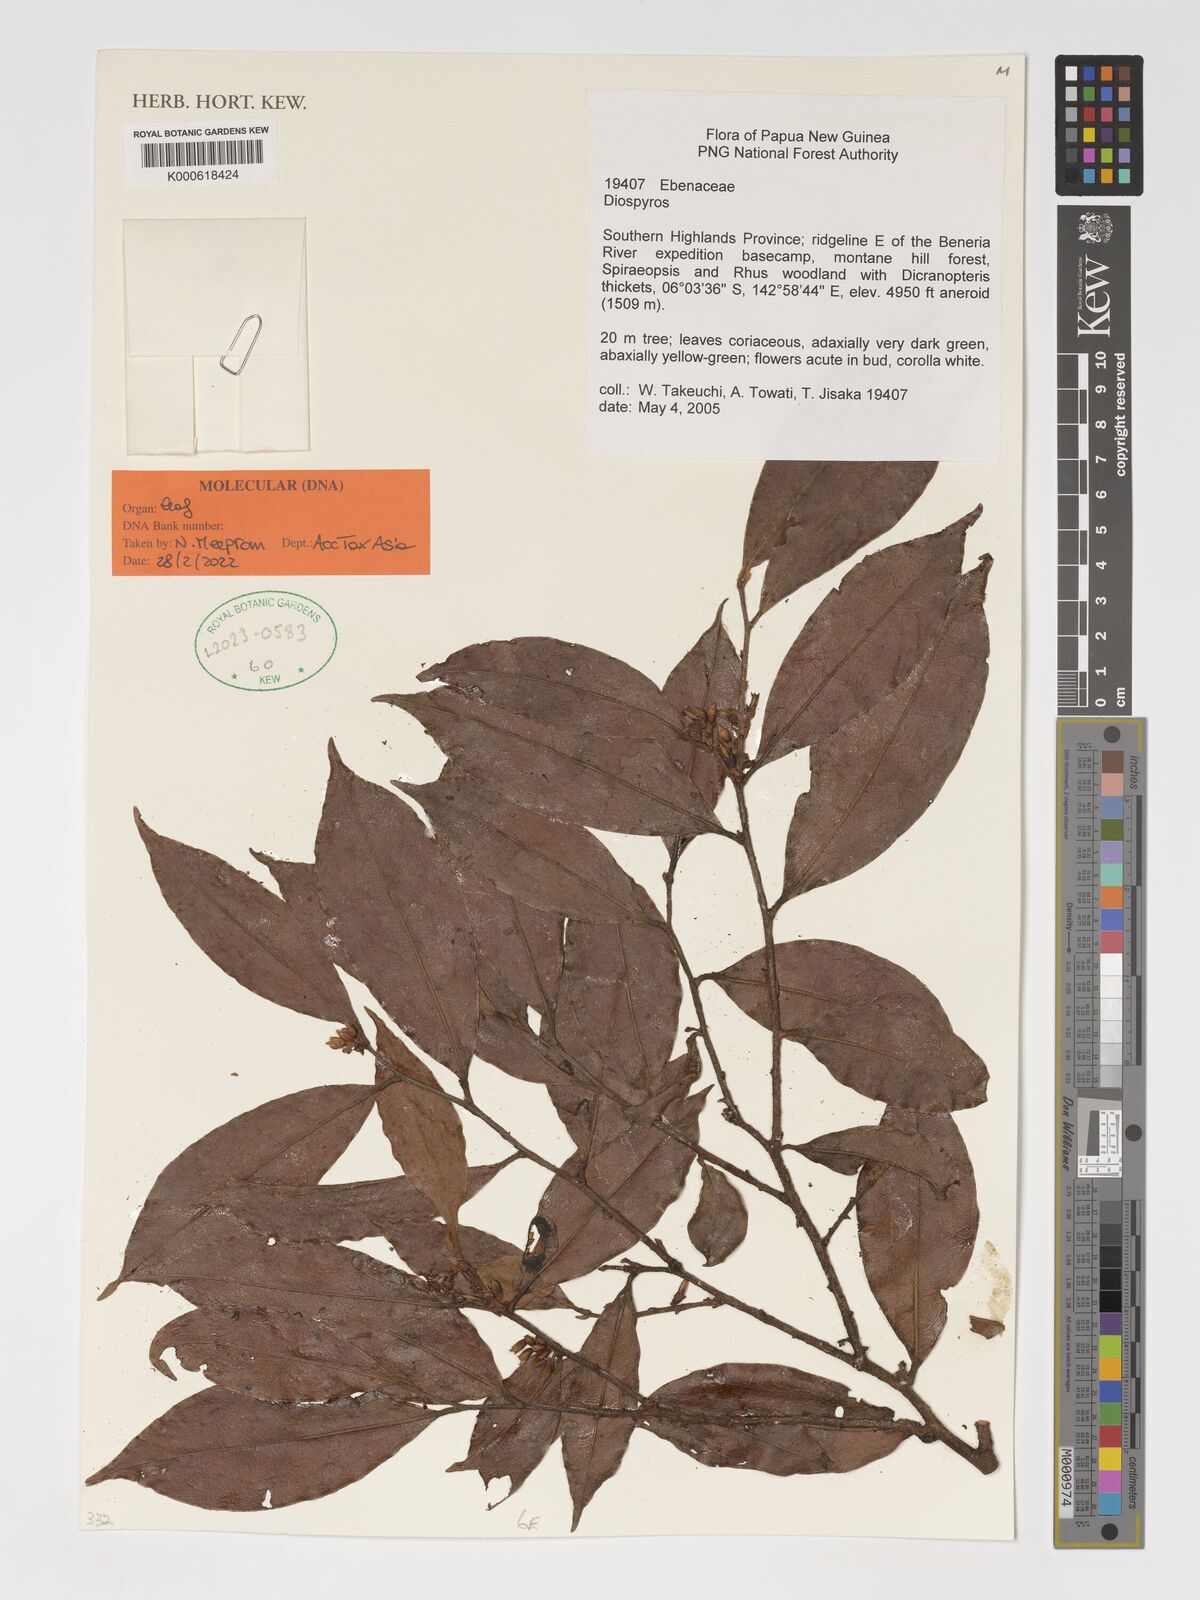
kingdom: Plantae
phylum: Tracheophyta
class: Magnoliopsida
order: Ericales
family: Ebenaceae
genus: Diospyros
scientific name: Diospyros
